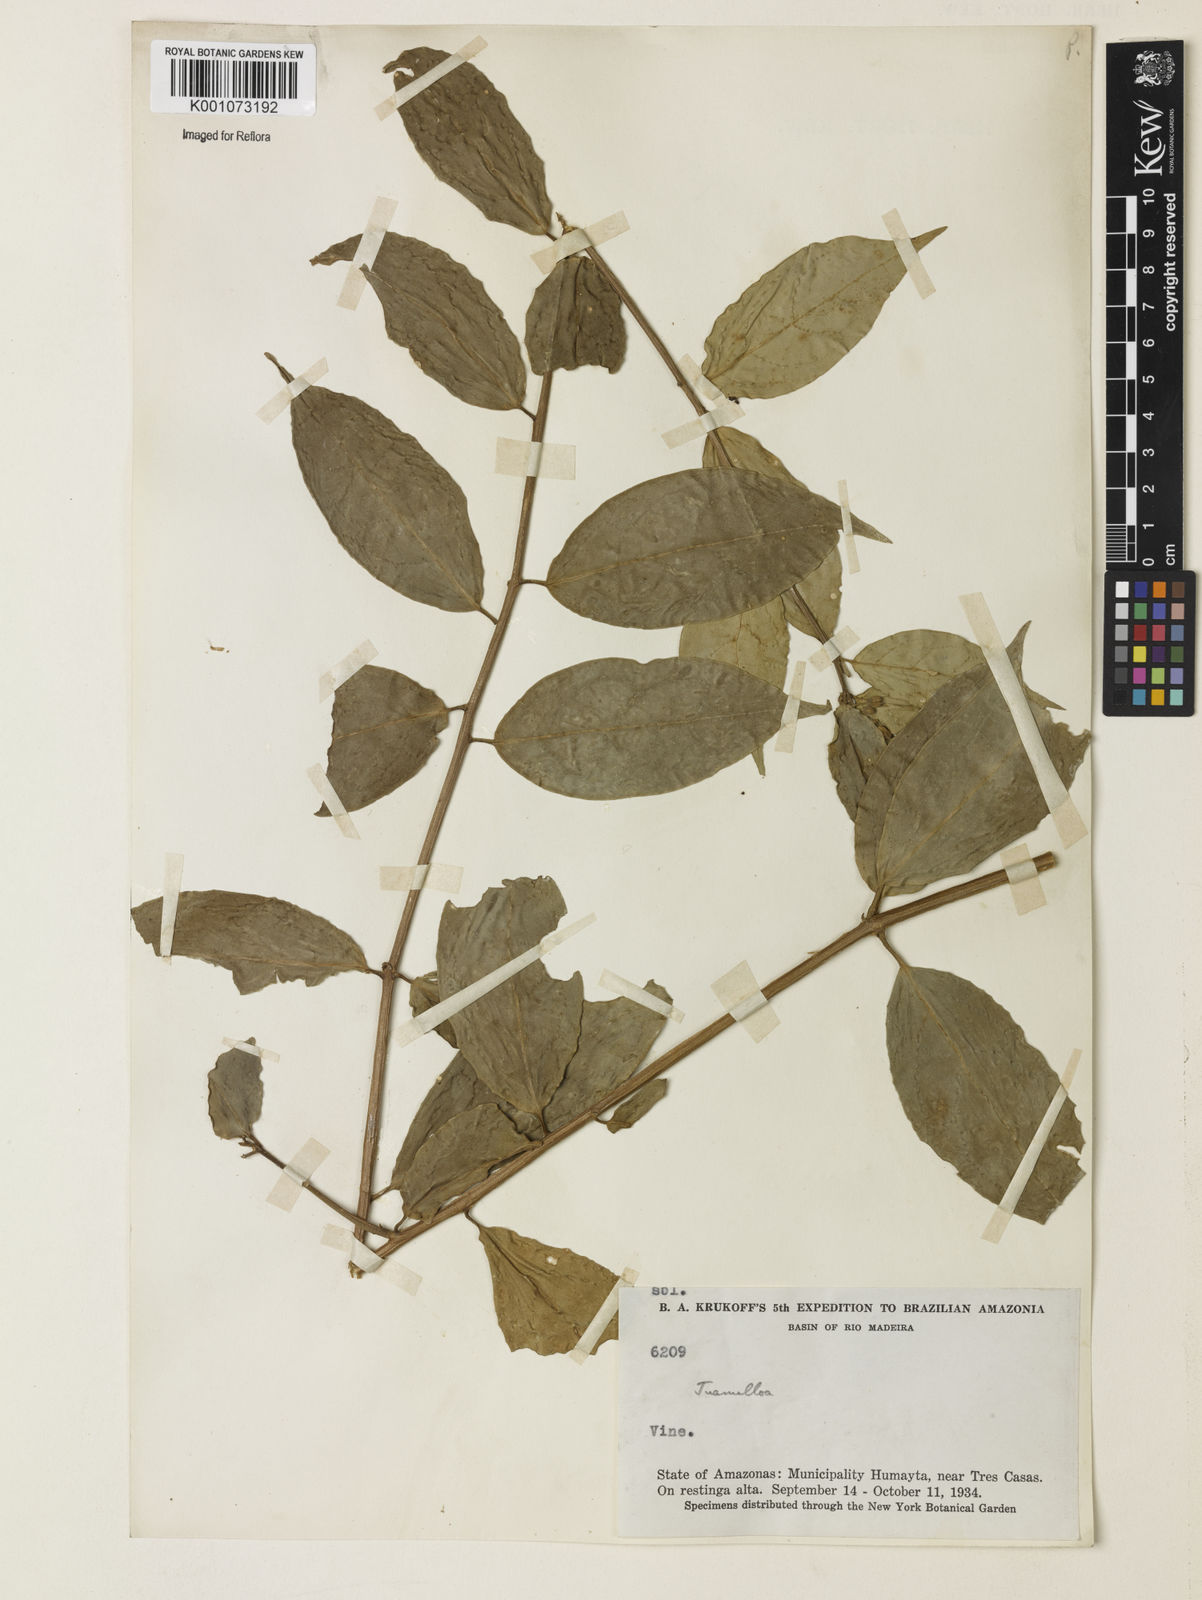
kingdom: Plantae
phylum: Tracheophyta
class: Magnoliopsida
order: Solanales
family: Solanaceae
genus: Juanulloa
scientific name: Juanulloa
